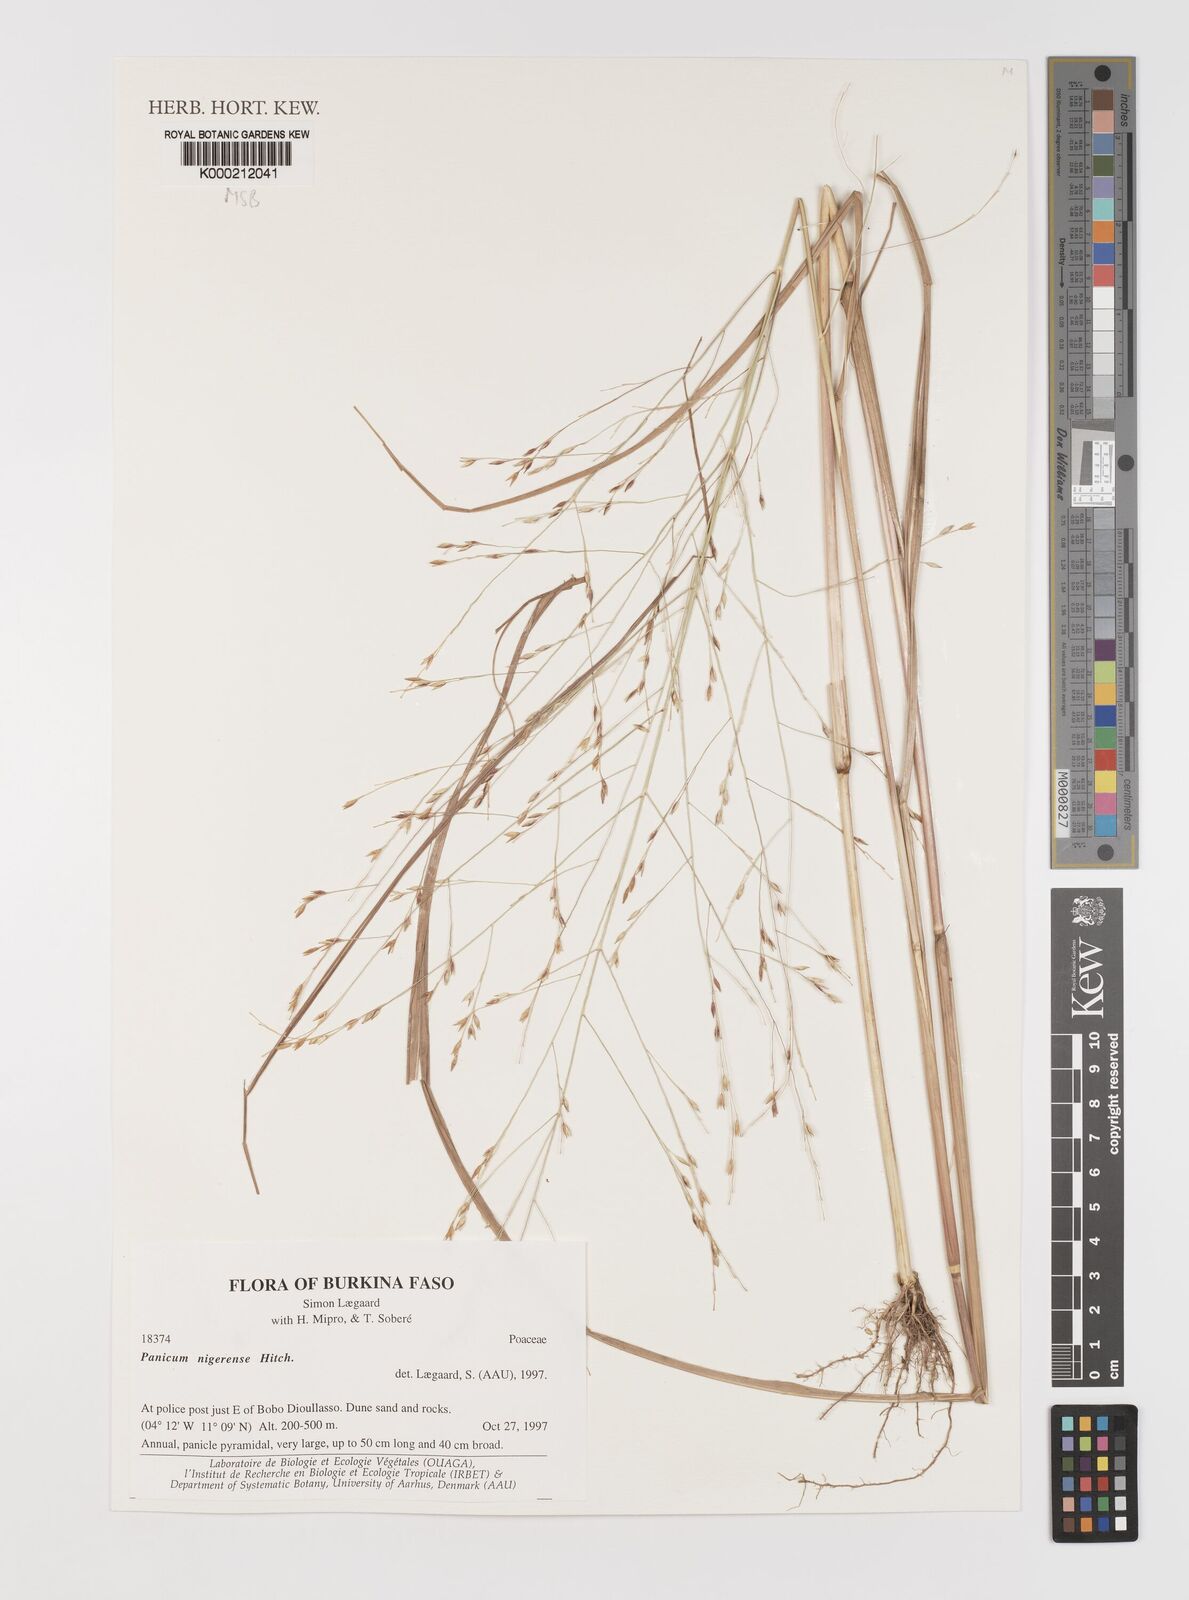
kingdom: Plantae
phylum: Tracheophyta
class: Liliopsida
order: Poales
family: Poaceae
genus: Panicum
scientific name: Panicum nigerense
